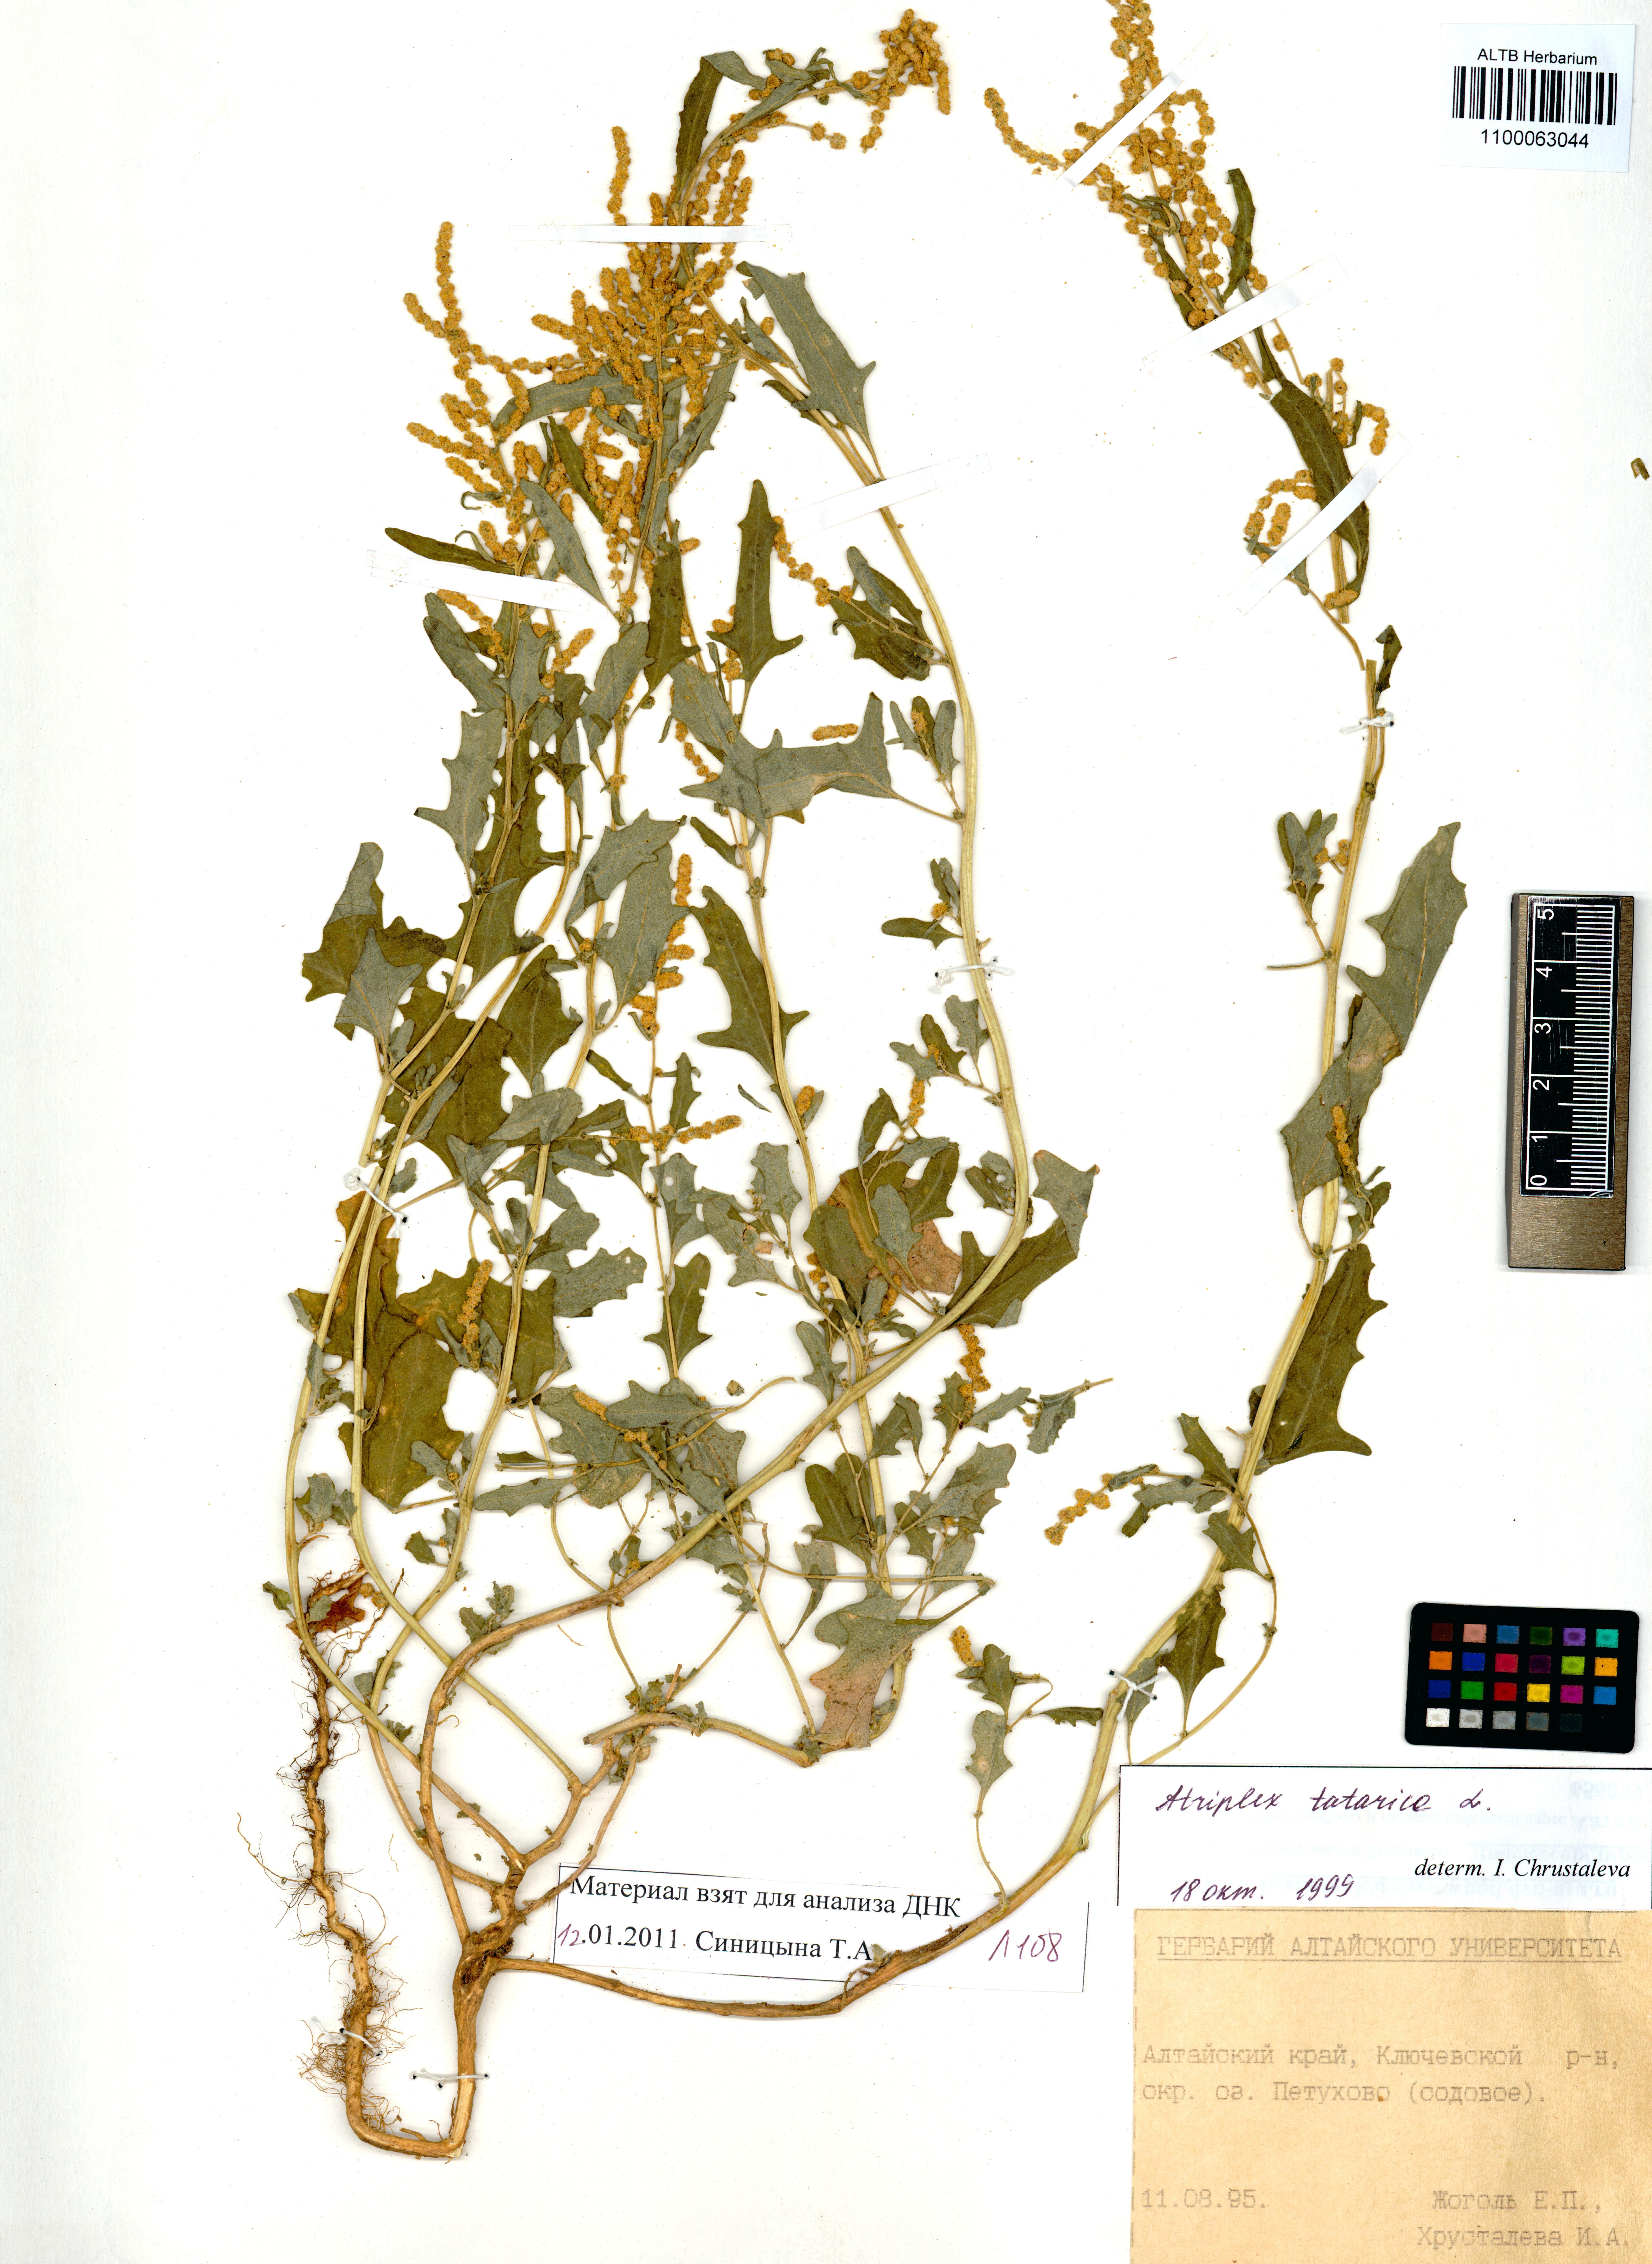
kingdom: Plantae
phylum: Tracheophyta
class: Magnoliopsida
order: Caryophyllales
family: Amaranthaceae
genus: Atriplex
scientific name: Atriplex tatarica
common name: Tatarian orache
